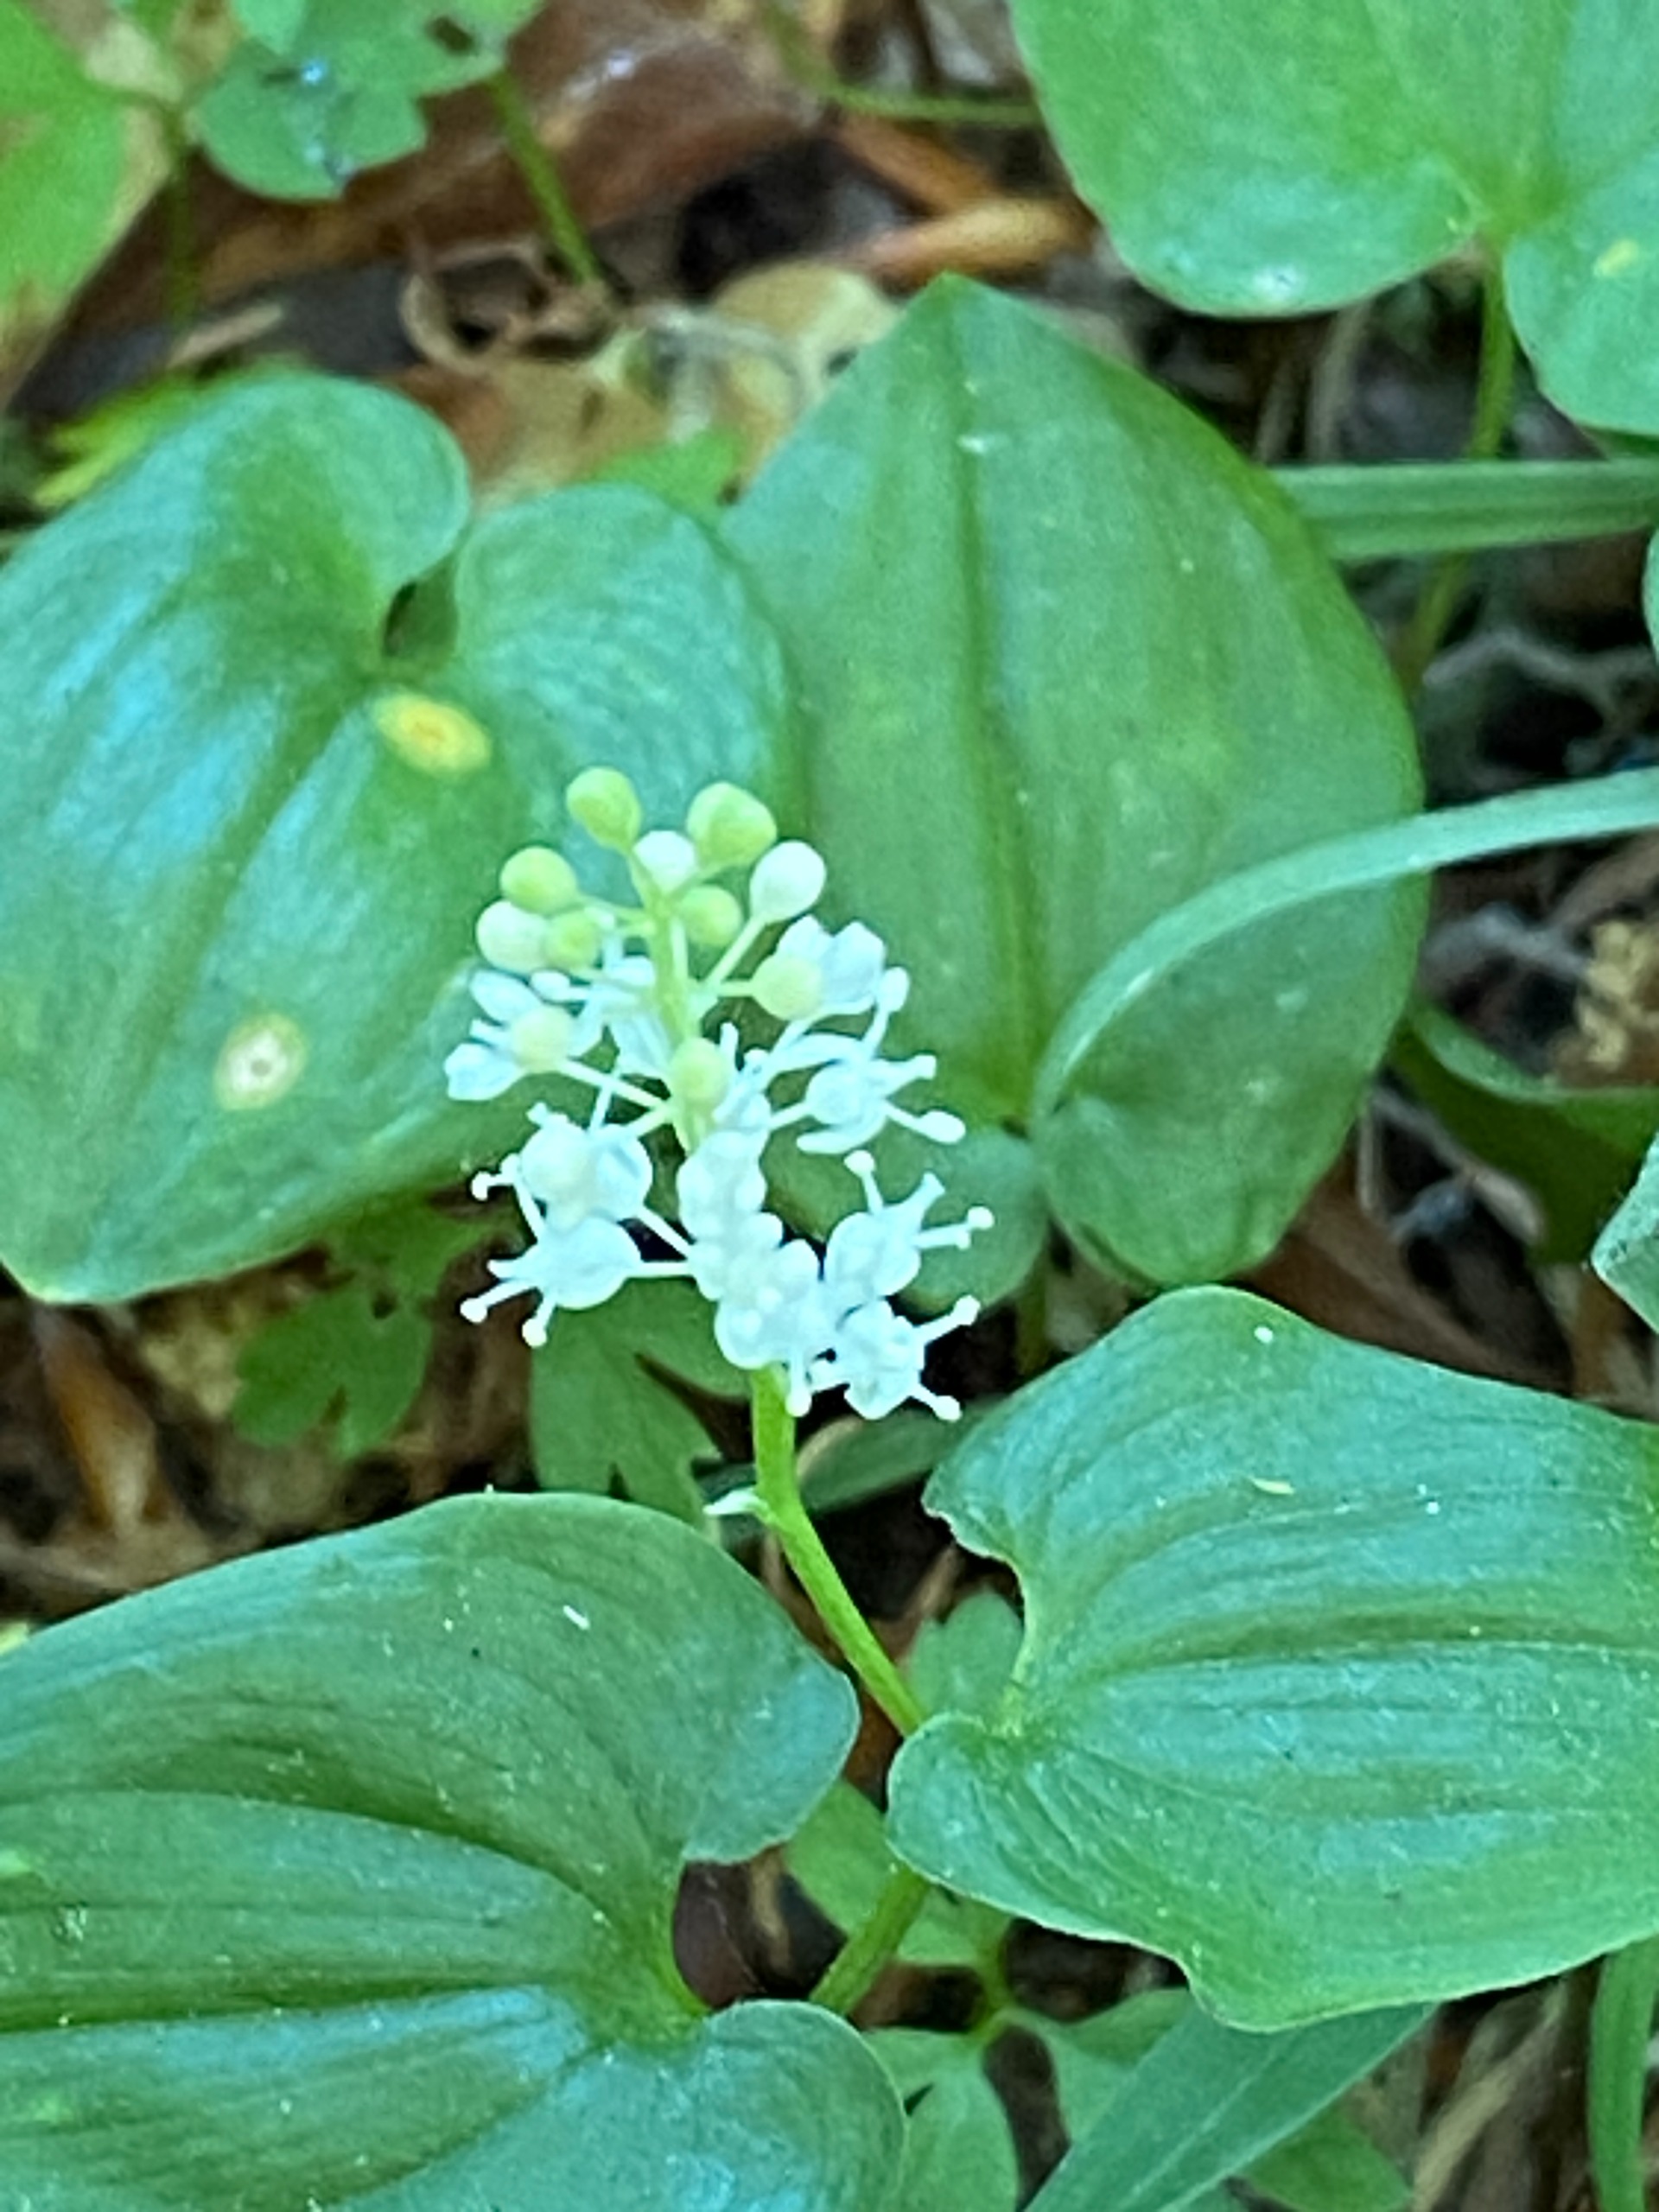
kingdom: Plantae
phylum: Tracheophyta
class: Liliopsida
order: Asparagales
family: Asparagaceae
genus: Maianthemum
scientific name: Maianthemum bifolium
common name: Majblomst
